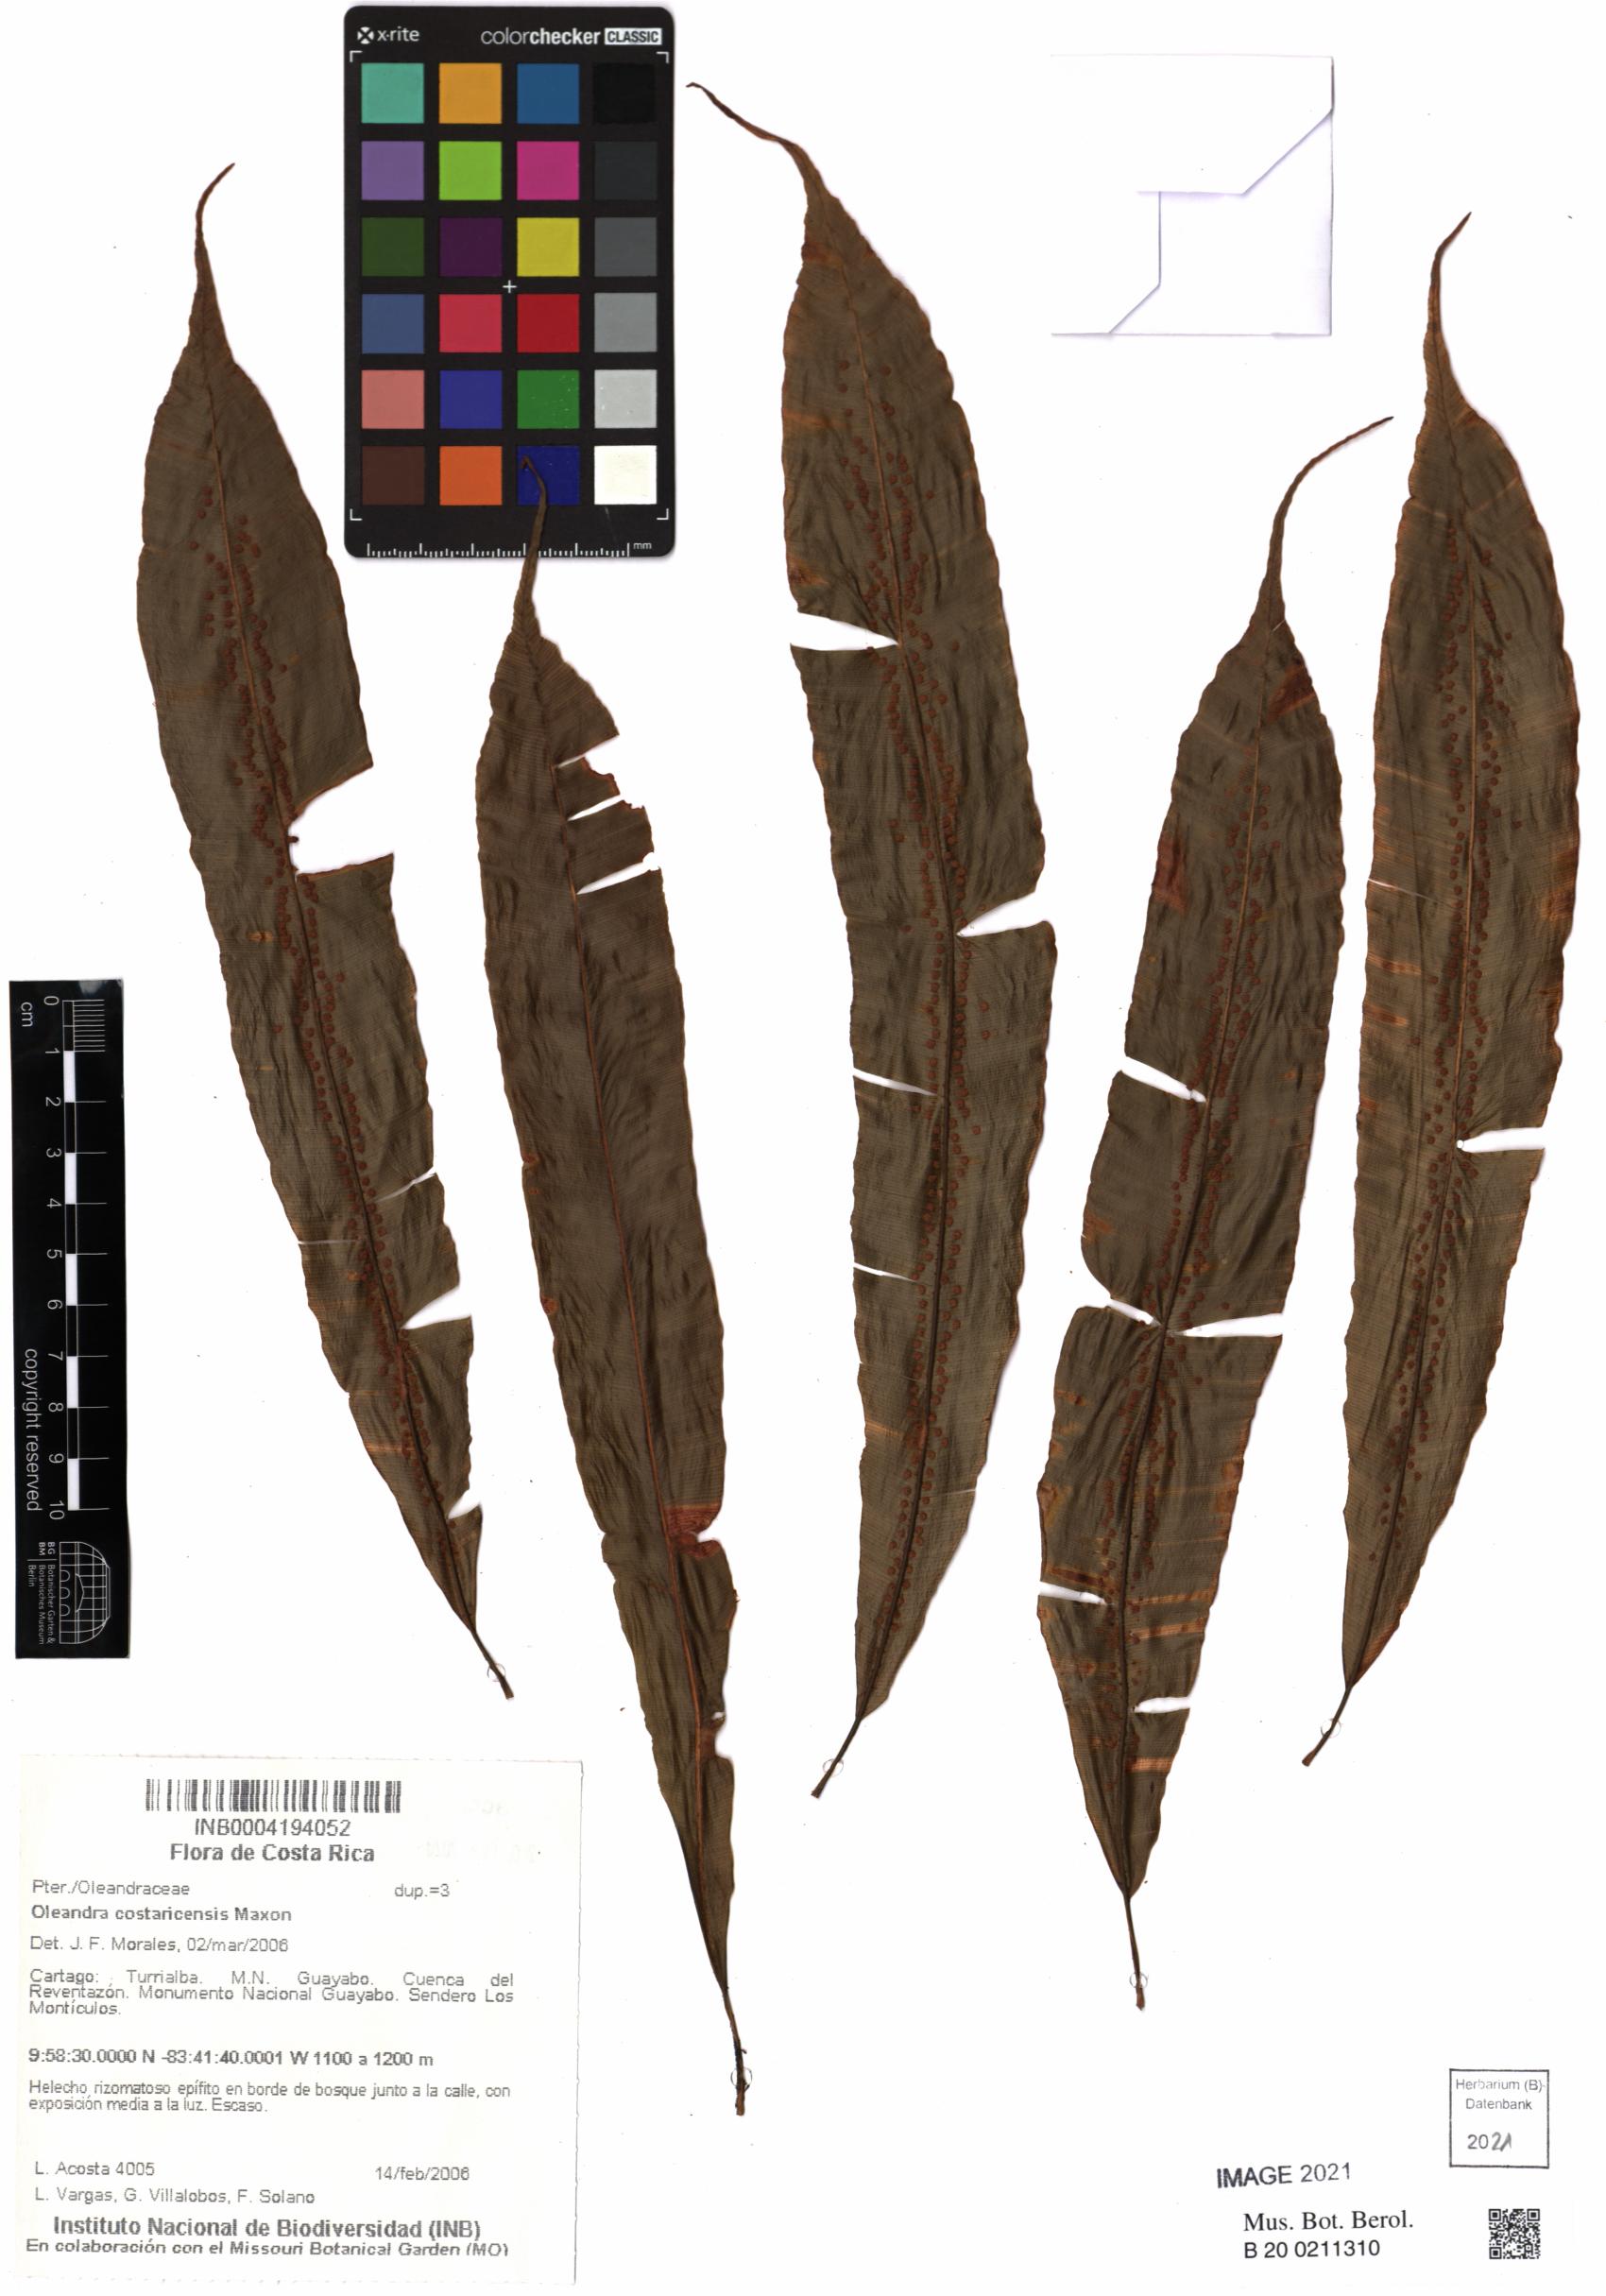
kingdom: Plantae
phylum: Tracheophyta
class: Polypodiopsida
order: Polypodiales
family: Oleandraceae
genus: Oleandra
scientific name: Oleandra lehmannii
